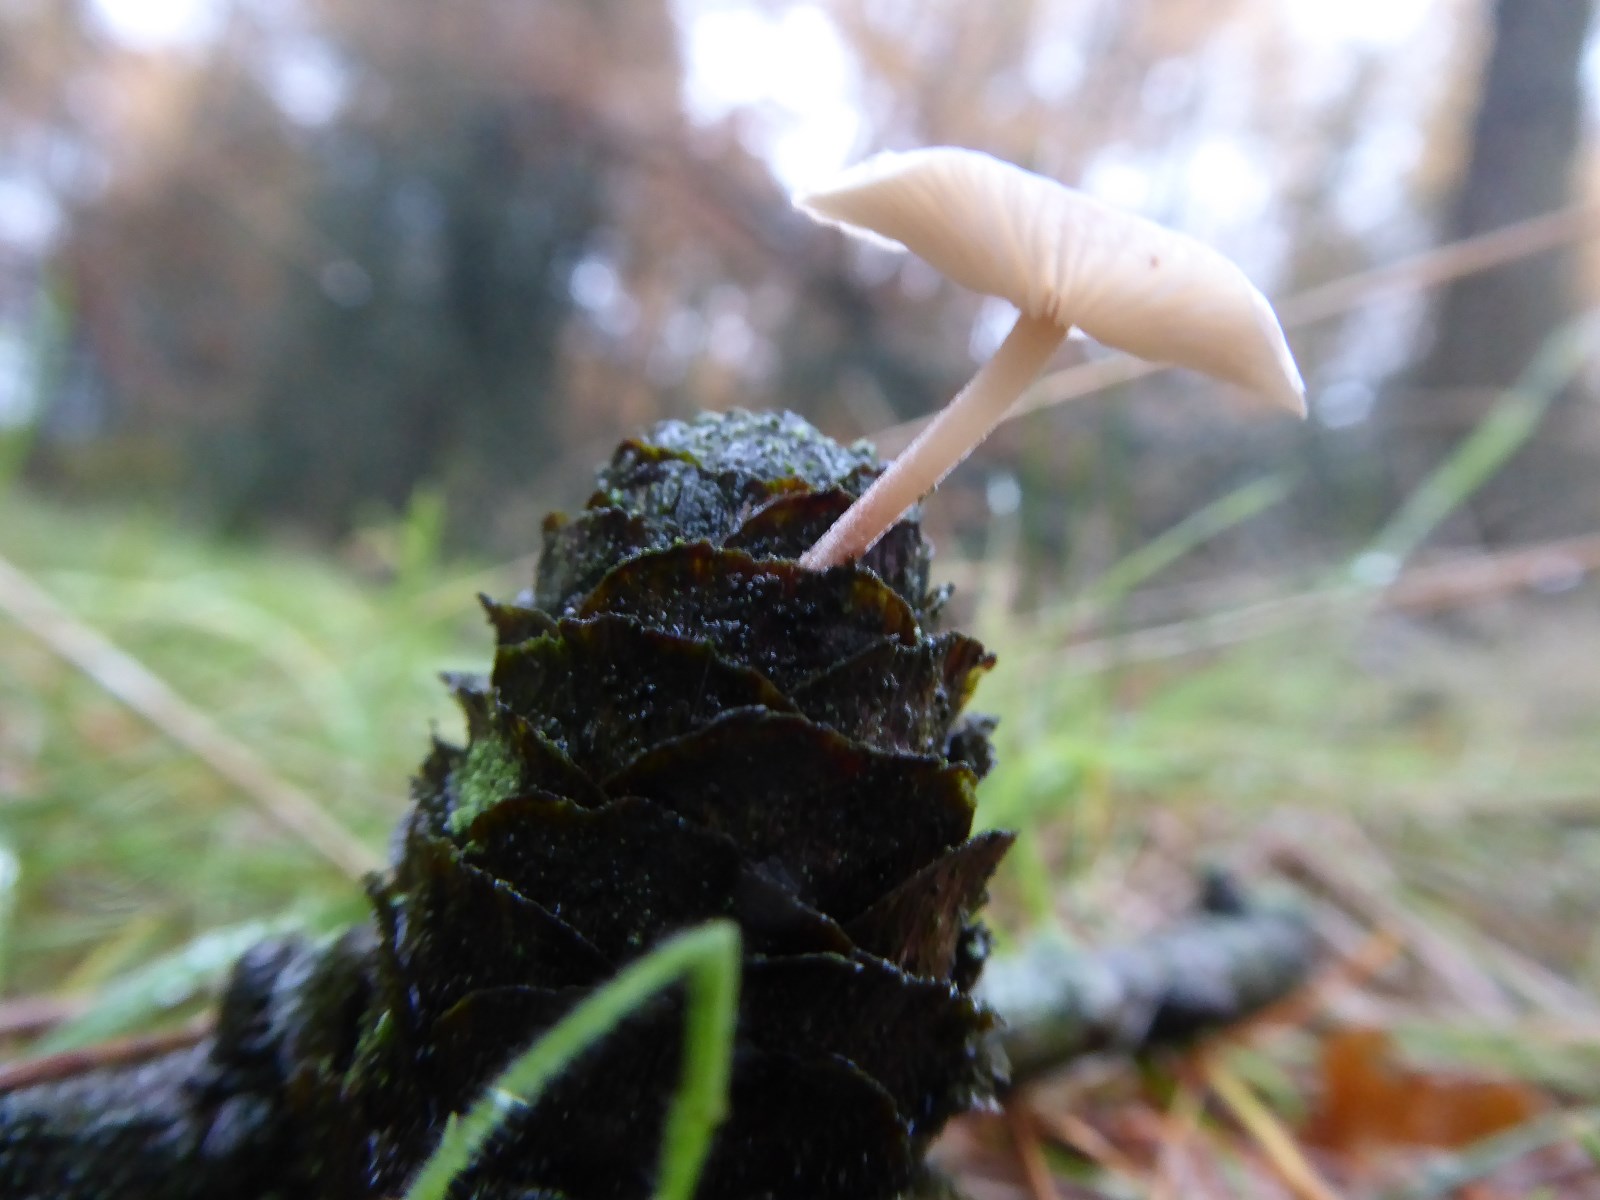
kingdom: Fungi
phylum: Basidiomycota
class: Agaricomycetes
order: Agaricales
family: Marasmiaceae
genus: Baeospora
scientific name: Baeospora myosura
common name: koglebruskhat
